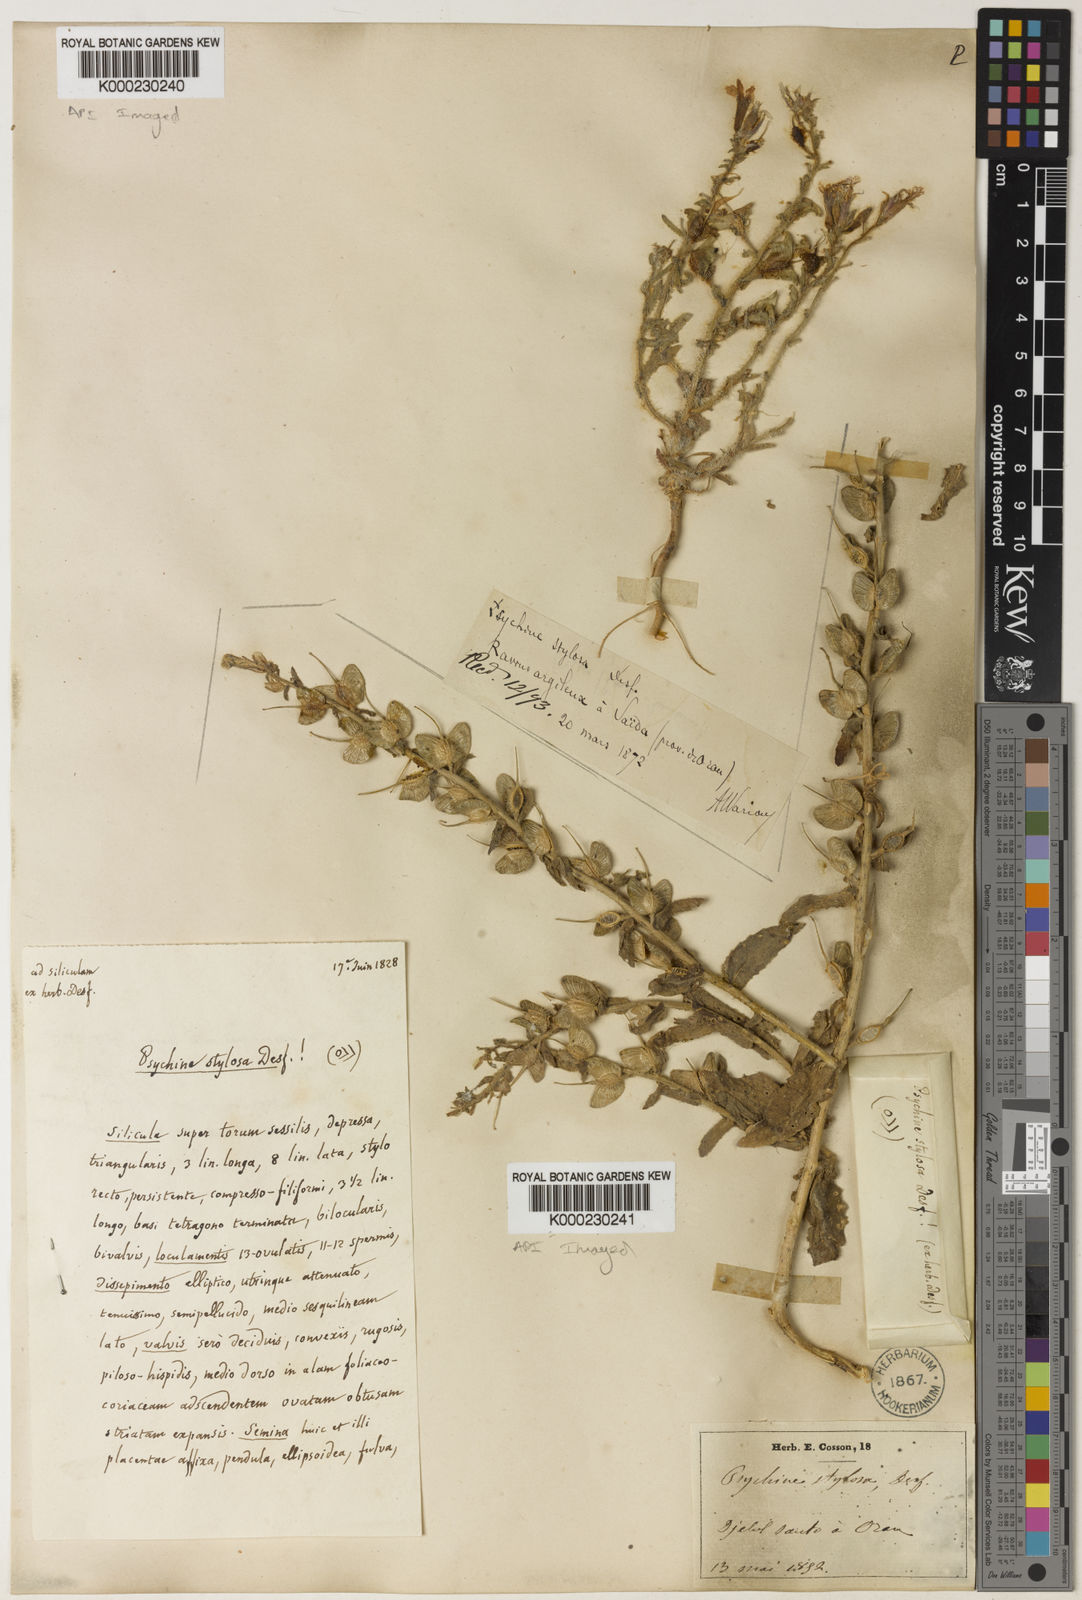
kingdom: Plantae
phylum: Tracheophyta
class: Magnoliopsida
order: Brassicales
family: Brassicaceae
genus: Psychine
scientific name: Psychine stylosa
